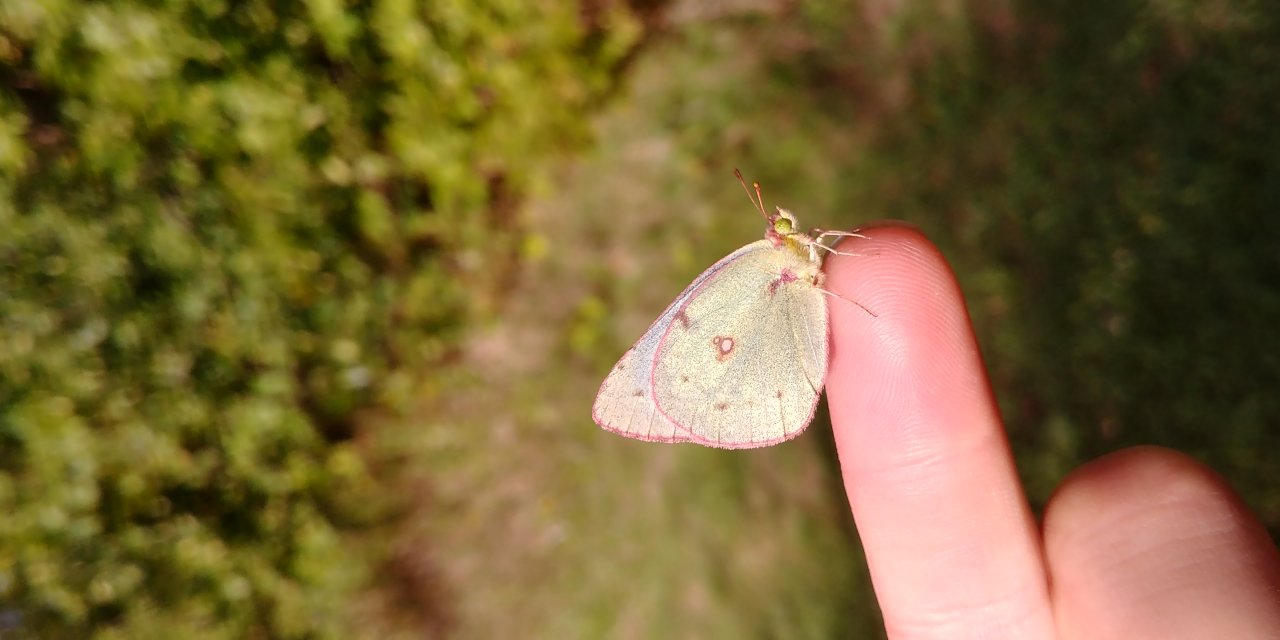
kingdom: Animalia
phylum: Arthropoda
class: Insecta
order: Lepidoptera
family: Pieridae
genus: Colias
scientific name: Colias philodice
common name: Clouded Sulphur
